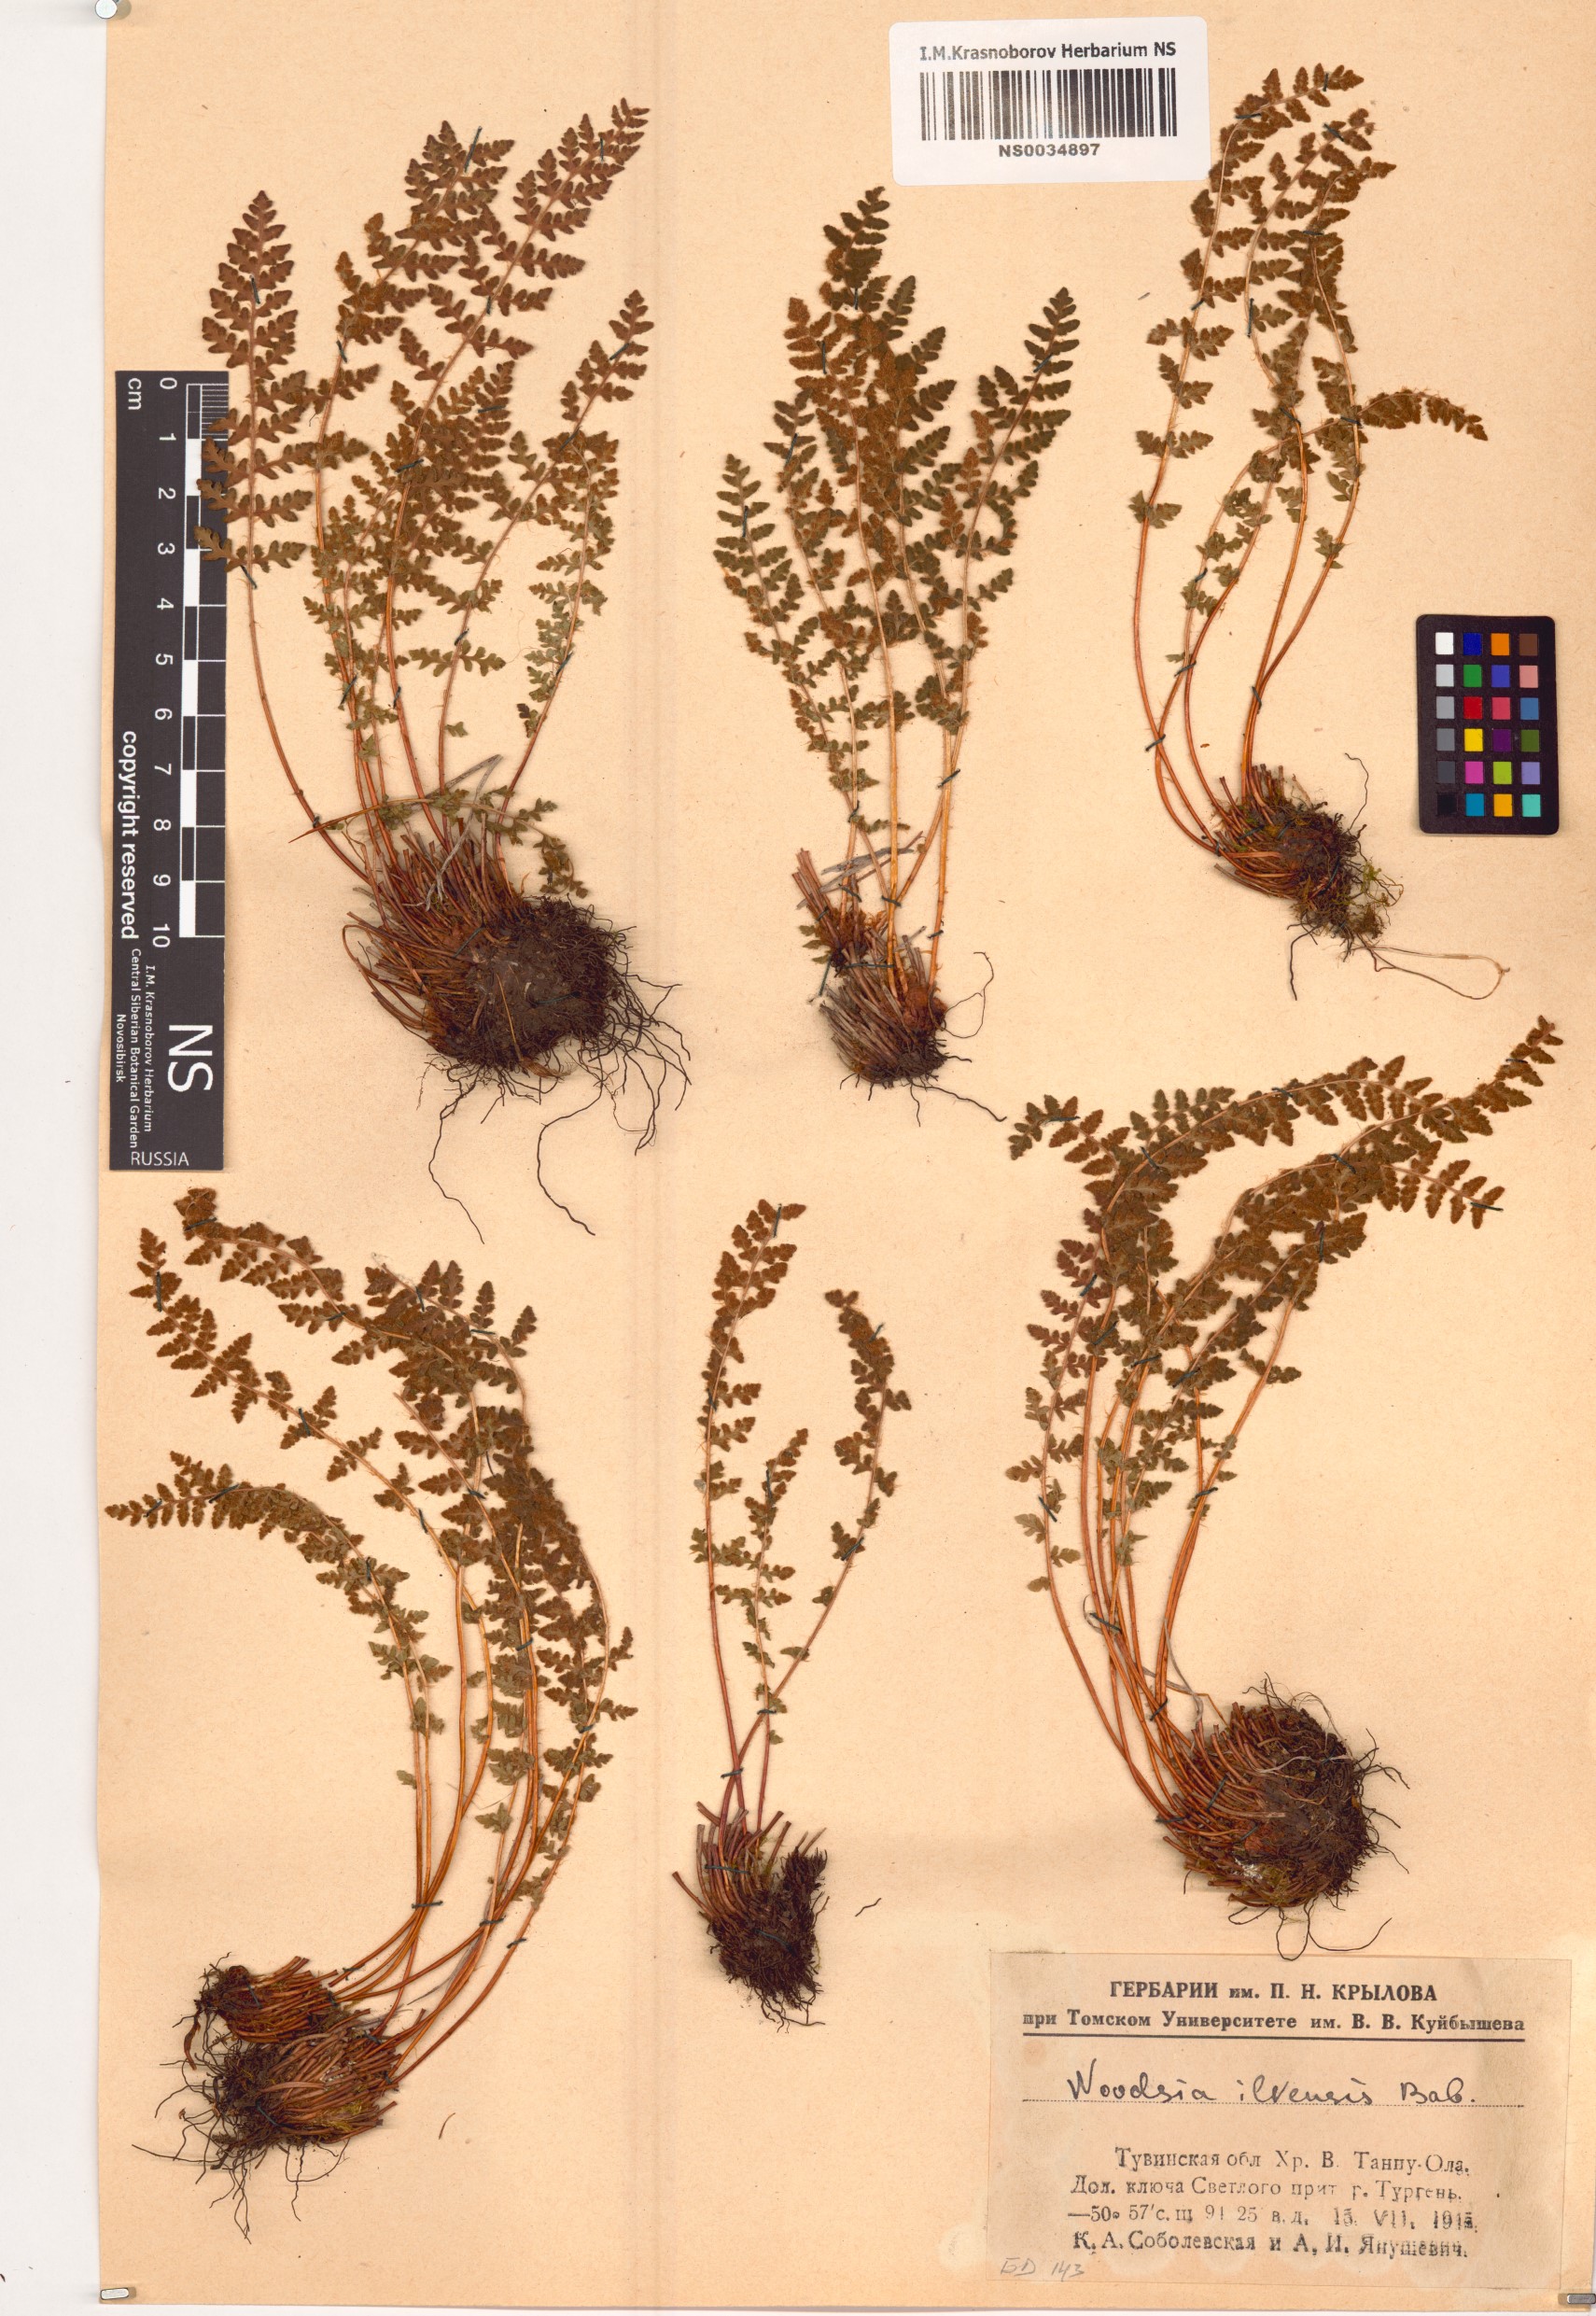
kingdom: Plantae
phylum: Tracheophyta
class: Polypodiopsida
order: Polypodiales
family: Woodsiaceae
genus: Woodsia
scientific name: Woodsia ilvensis
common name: Fragrant woodsia
